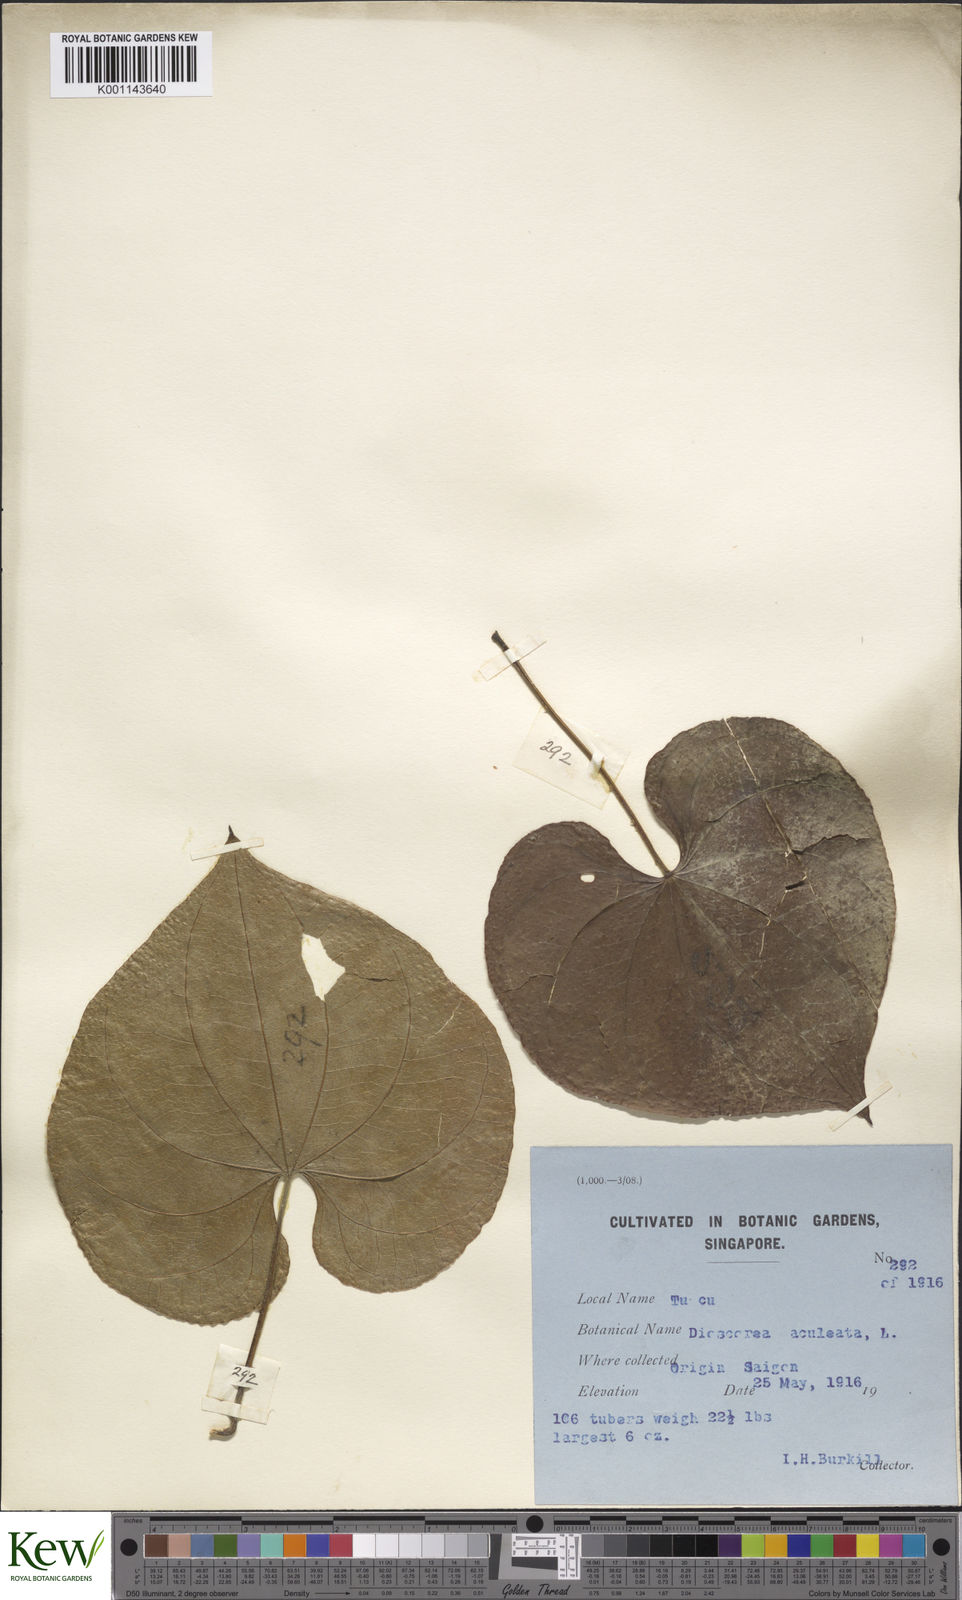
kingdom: Plantae
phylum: Tracheophyta
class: Liliopsida
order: Dioscoreales
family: Dioscoreaceae
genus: Dioscorea
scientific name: Dioscorea esculenta
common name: Chinese yam
